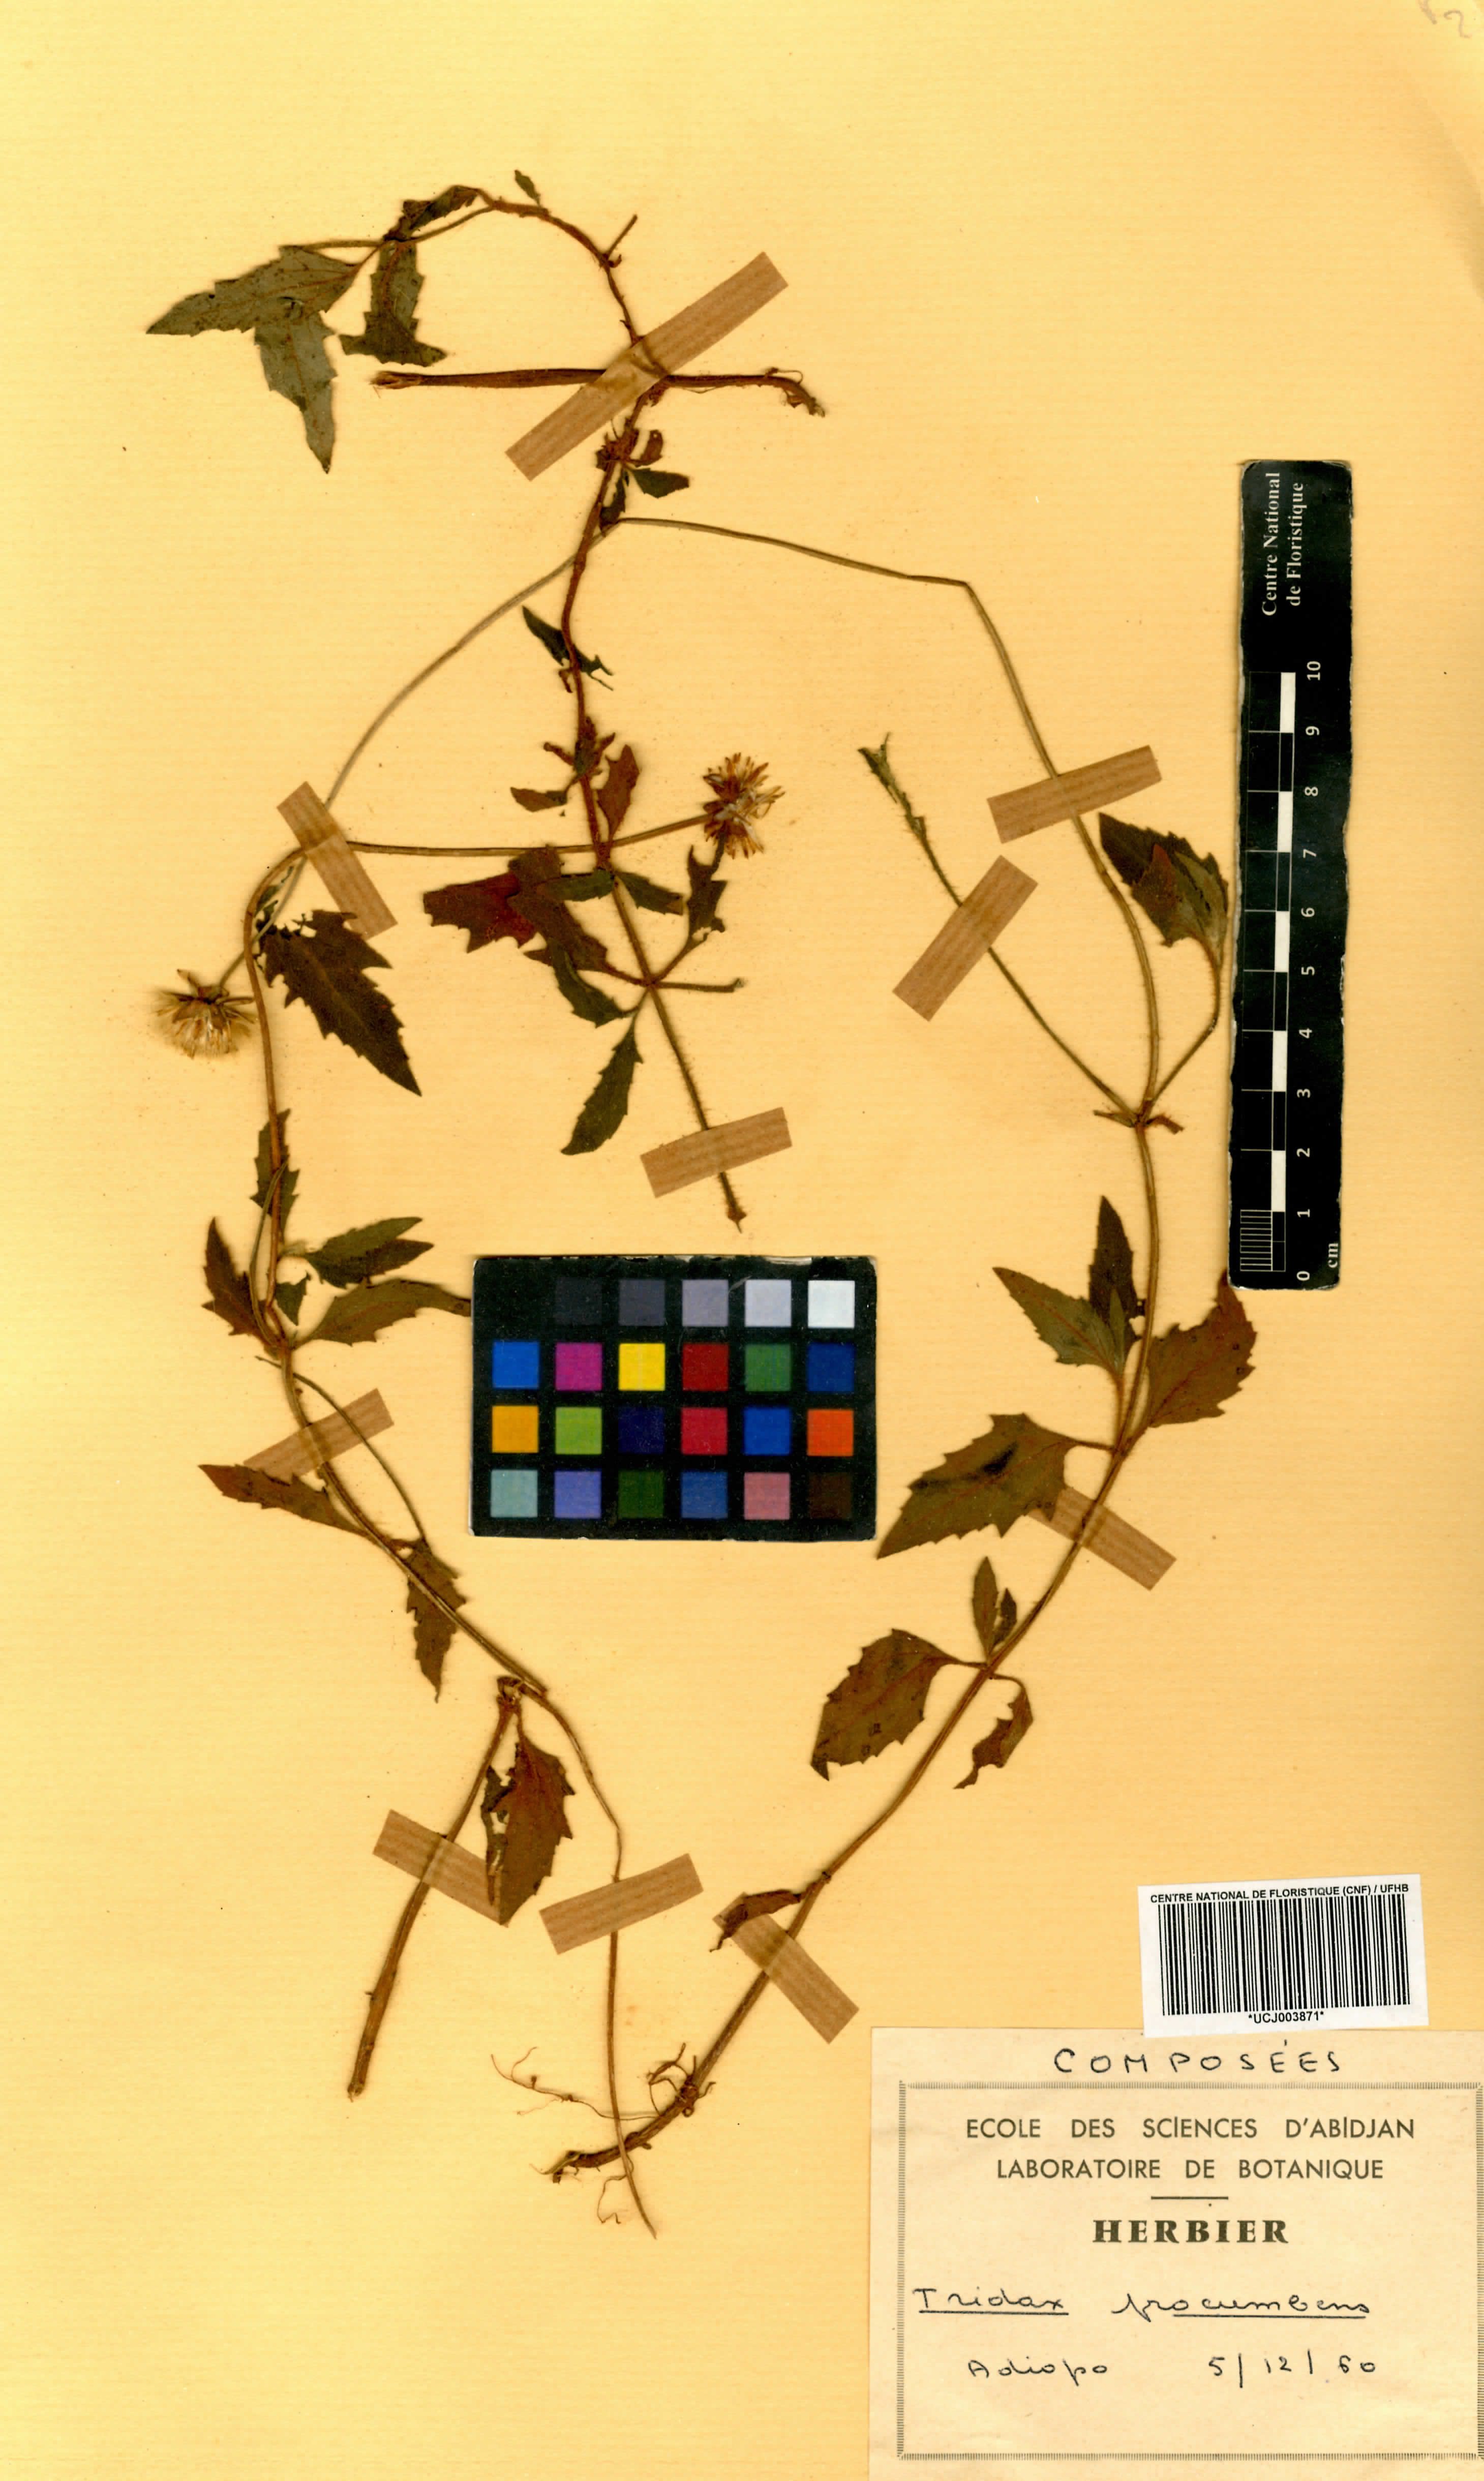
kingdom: Plantae
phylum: Tracheophyta
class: Magnoliopsida
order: Asterales
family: Asteraceae
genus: Tridax
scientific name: Tridax procumbens
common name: Coatbuttons
